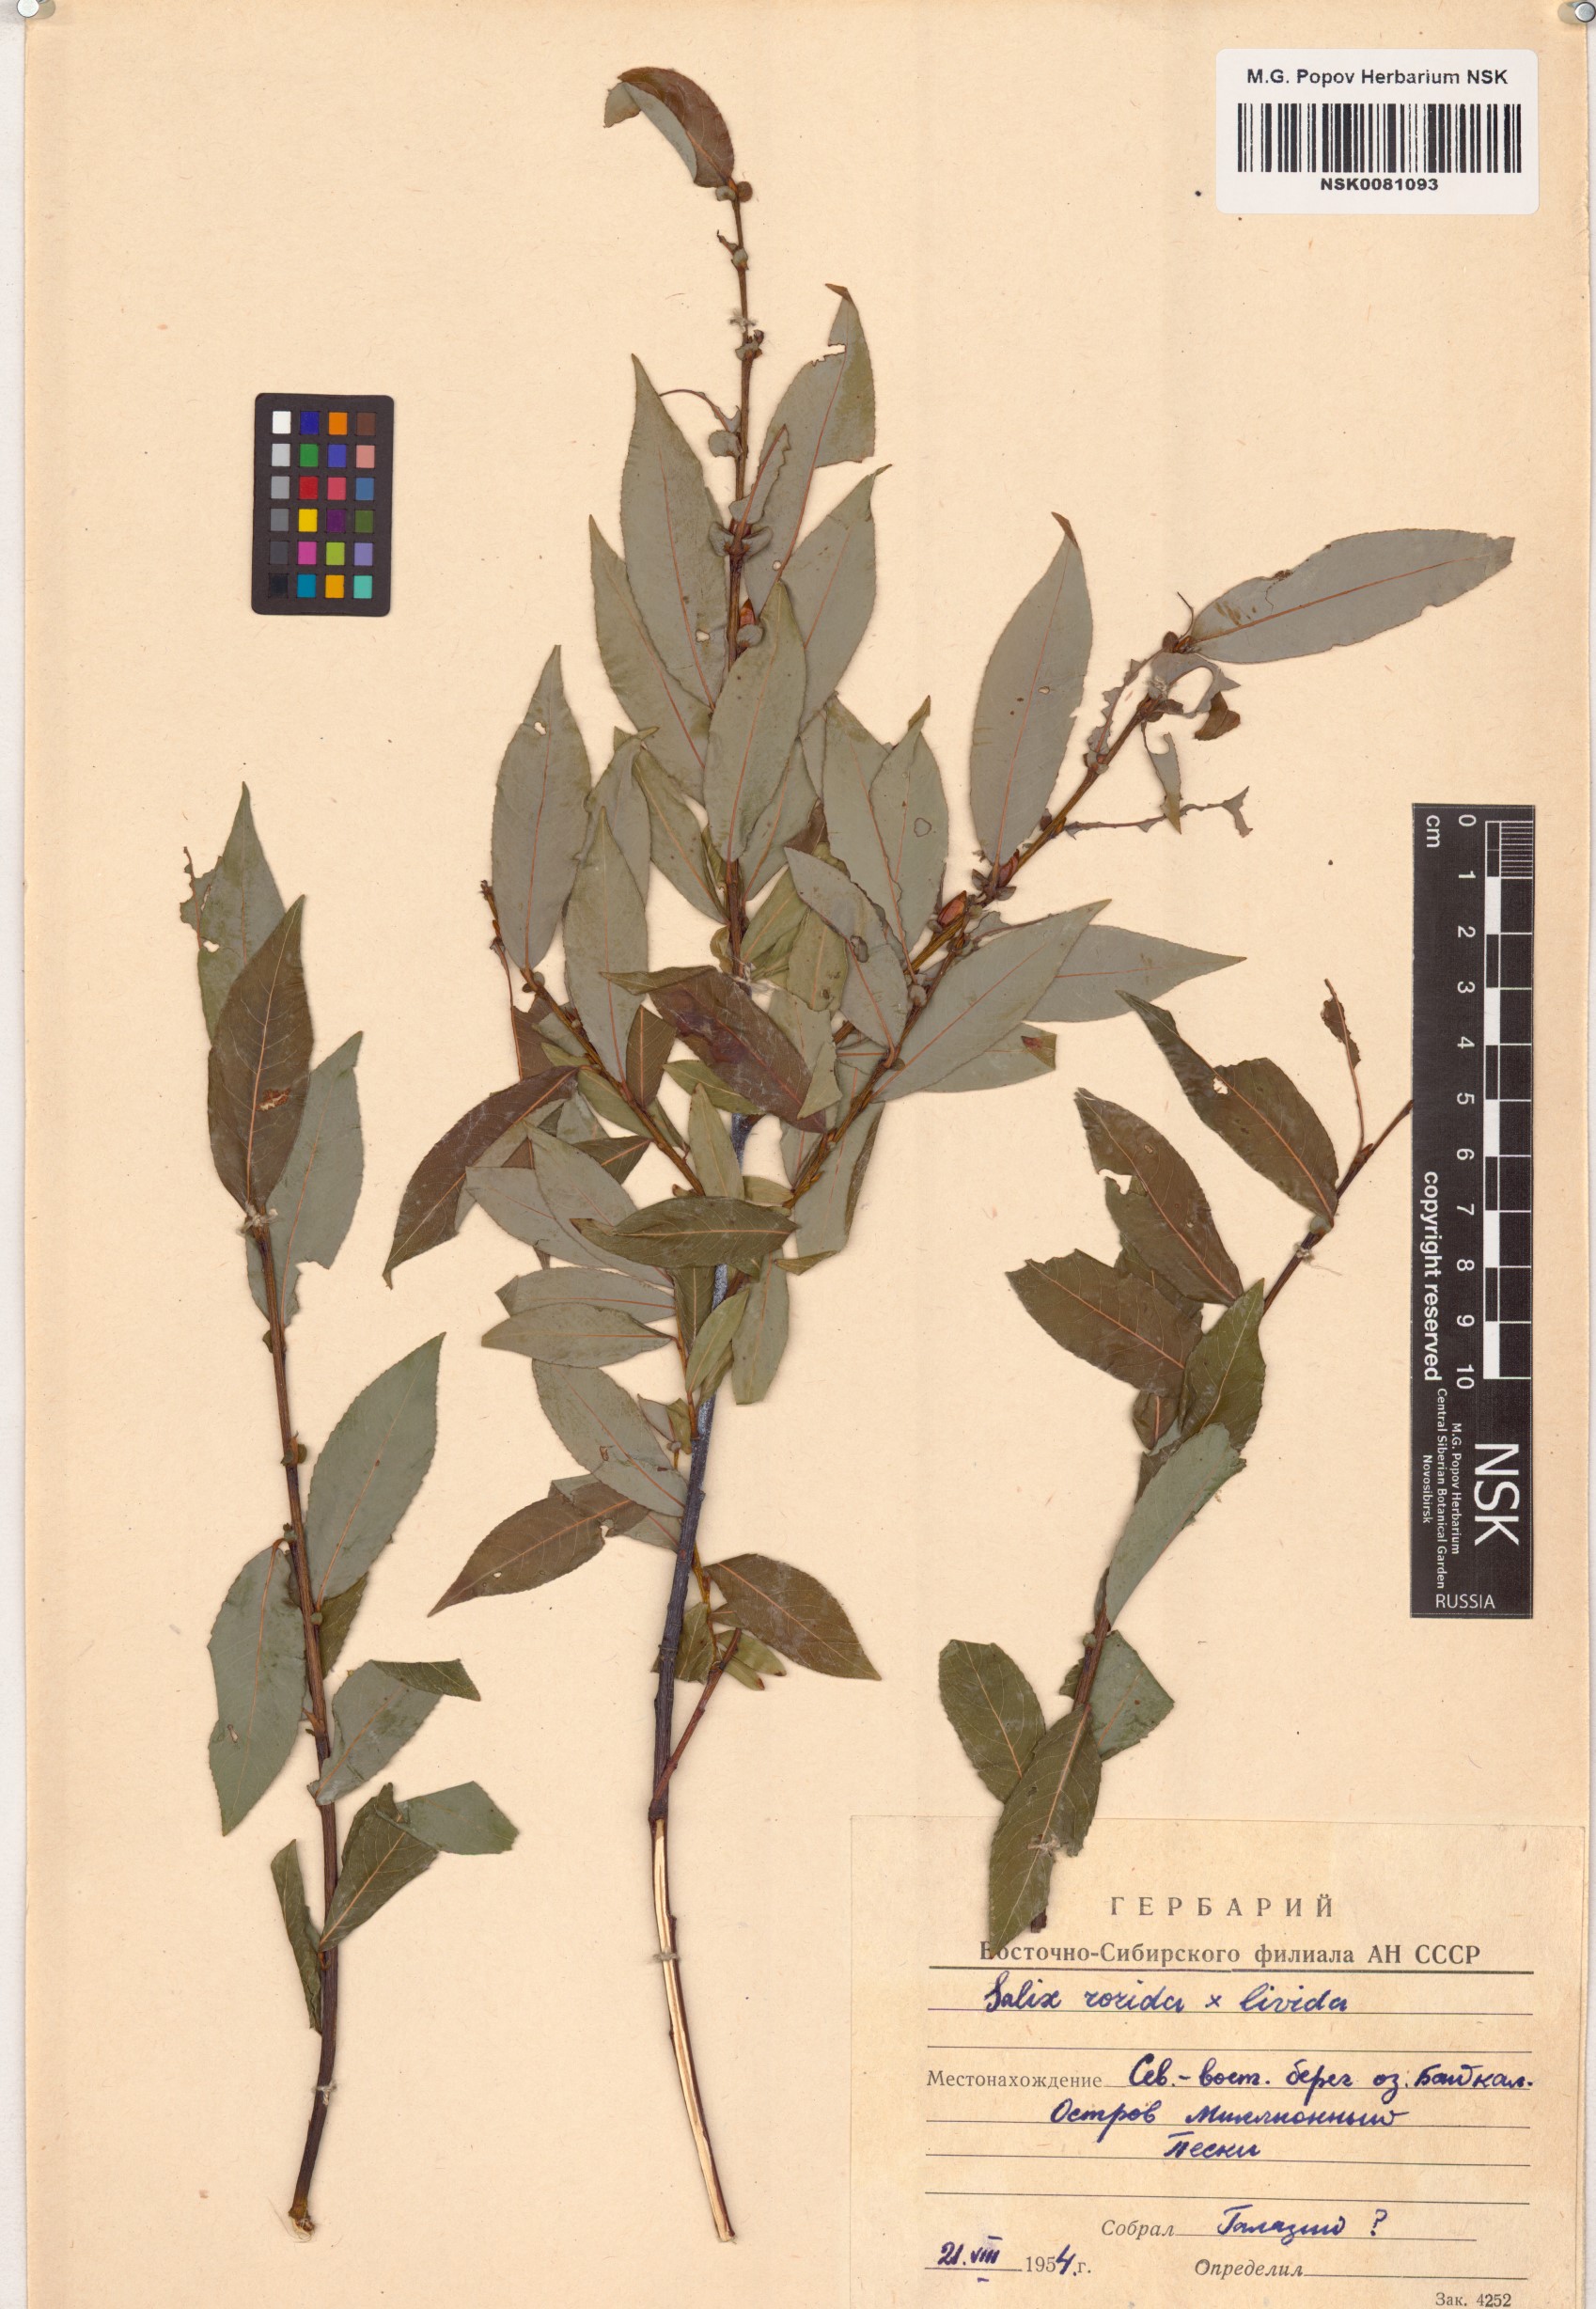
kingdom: Plantae
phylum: Tracheophyta
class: Magnoliopsida
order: Malpighiales
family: Salicaceae
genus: Salix
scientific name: Salix
